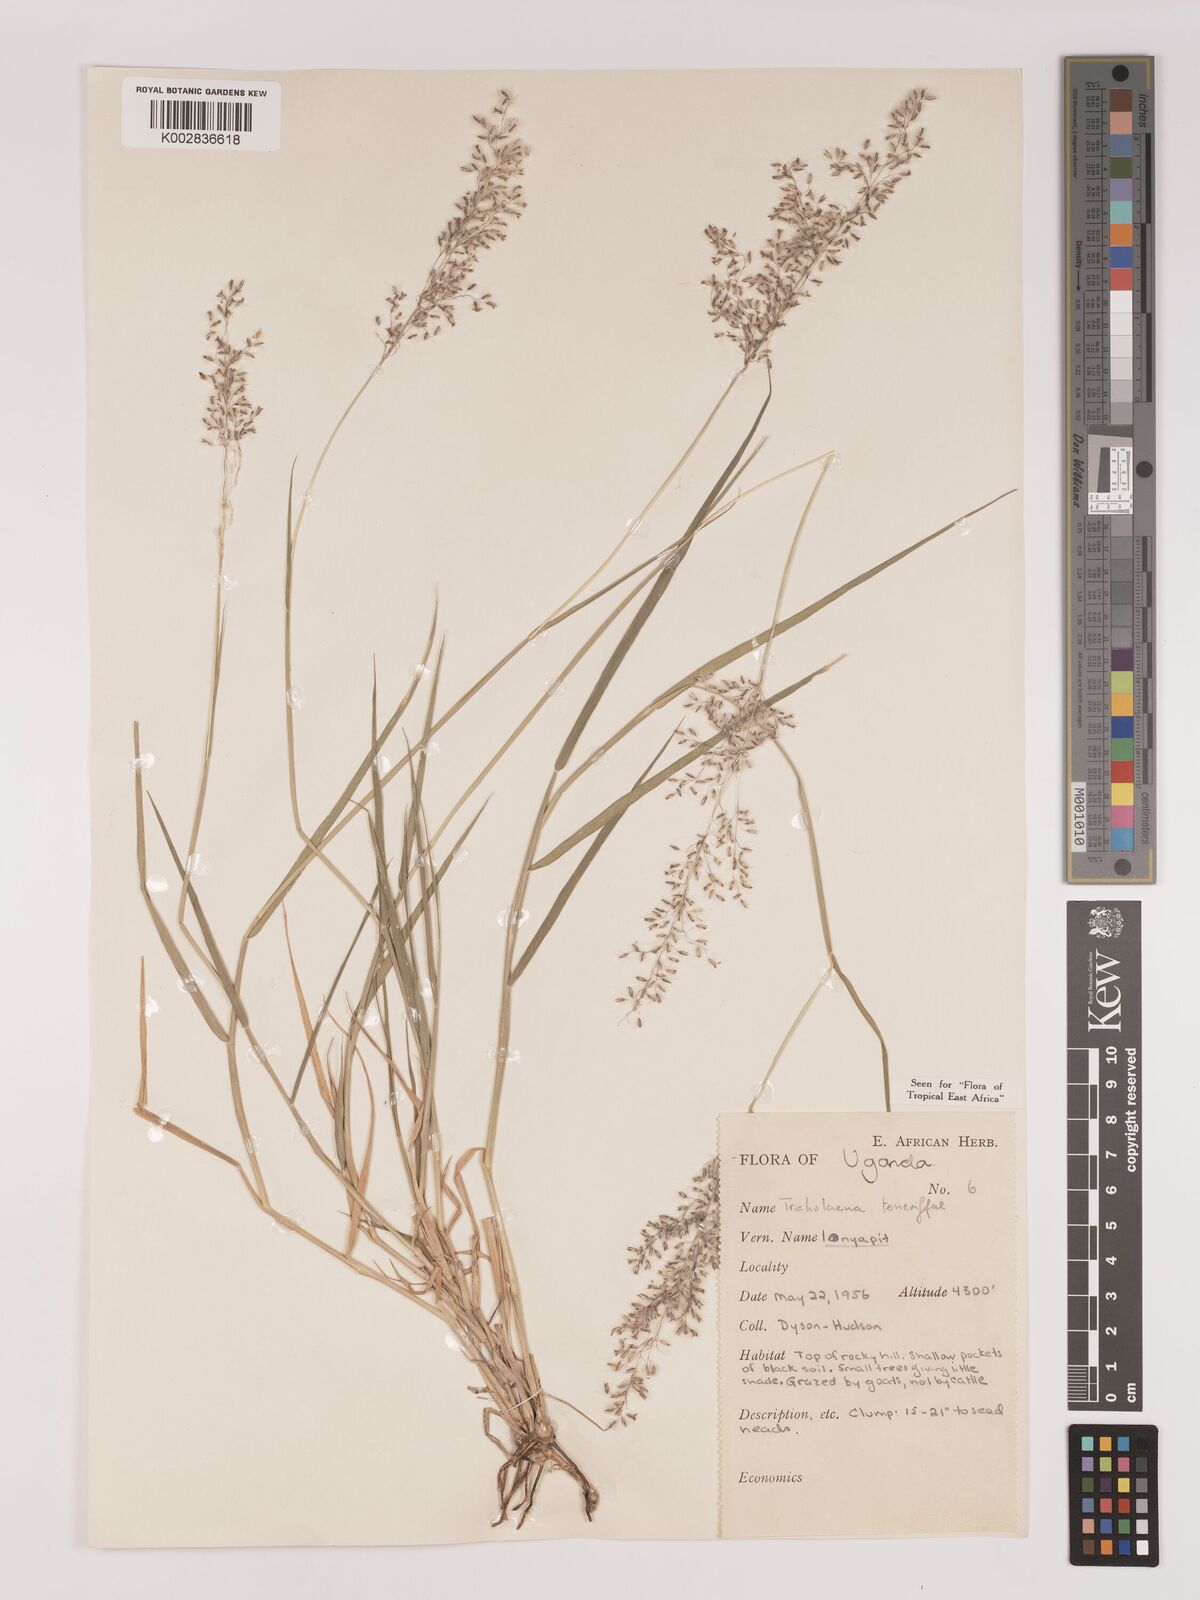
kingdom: Plantae
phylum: Tracheophyta
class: Liliopsida
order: Poales
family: Poaceae
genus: Tricholaena
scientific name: Tricholaena teneriffae
